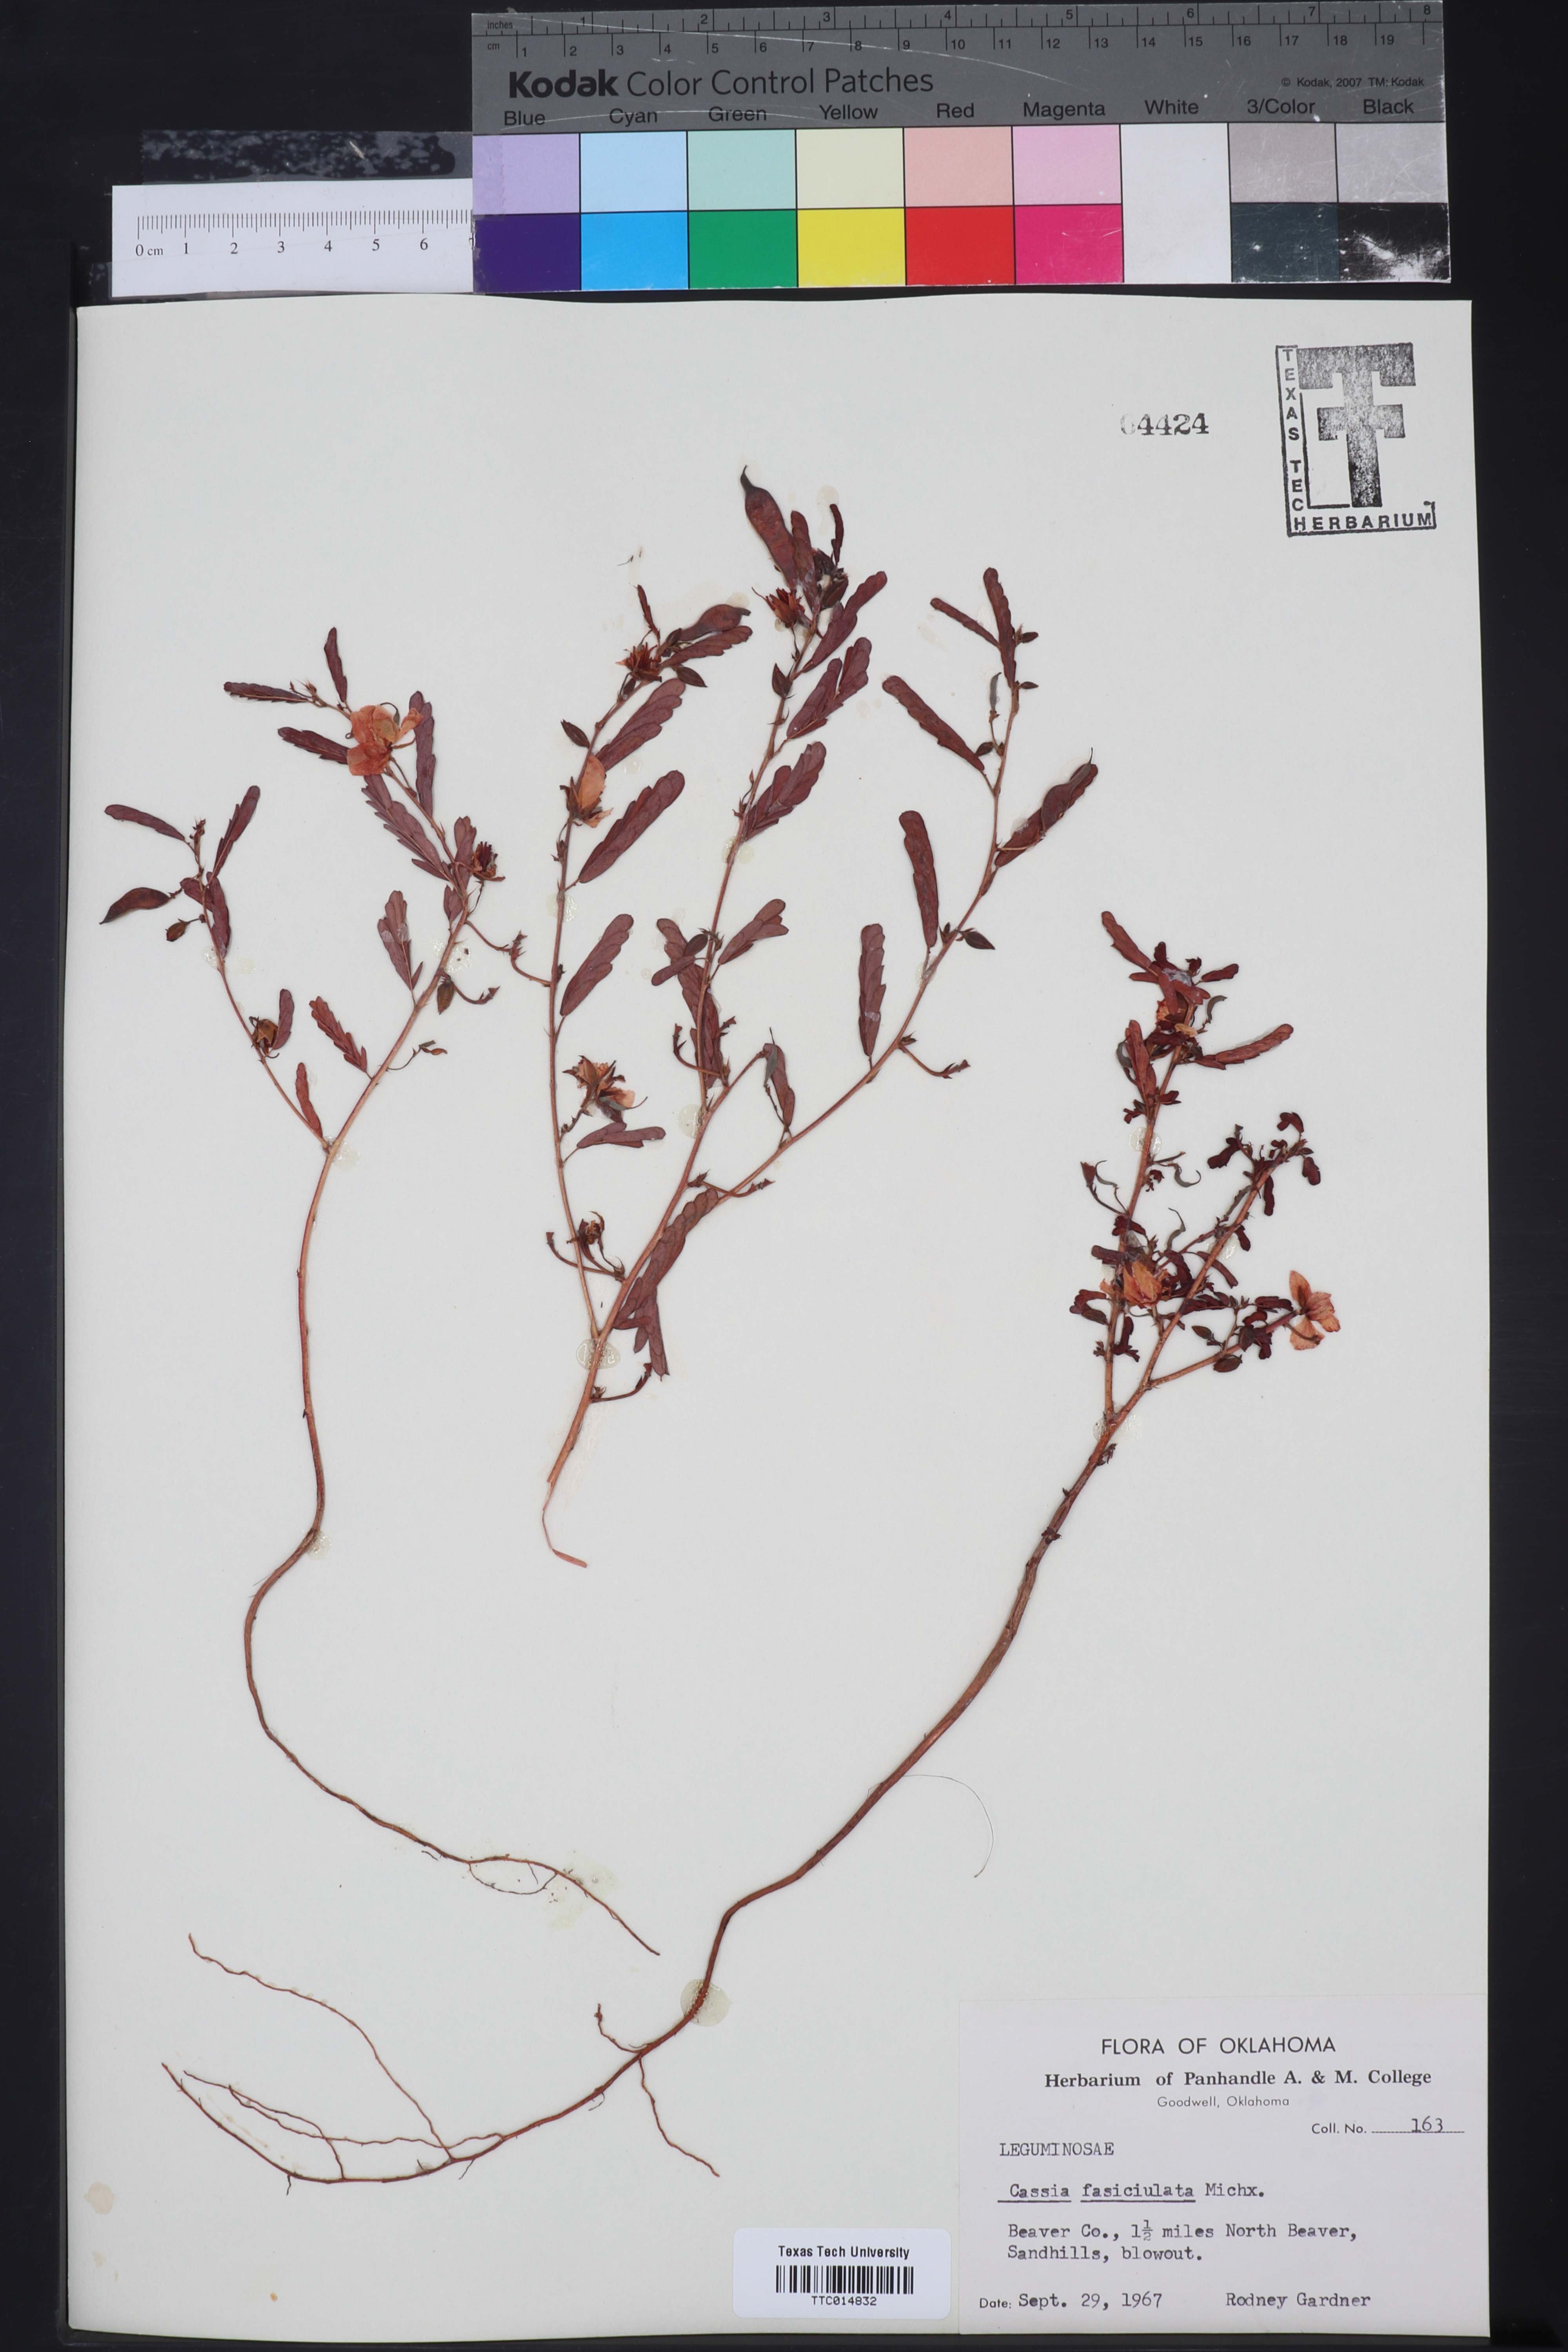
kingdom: Plantae
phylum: Tracheophyta
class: Magnoliopsida
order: Fabales
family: Fabaceae
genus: Chamaecrista
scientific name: Chamaecrista fasciculata
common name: Golden cassia
